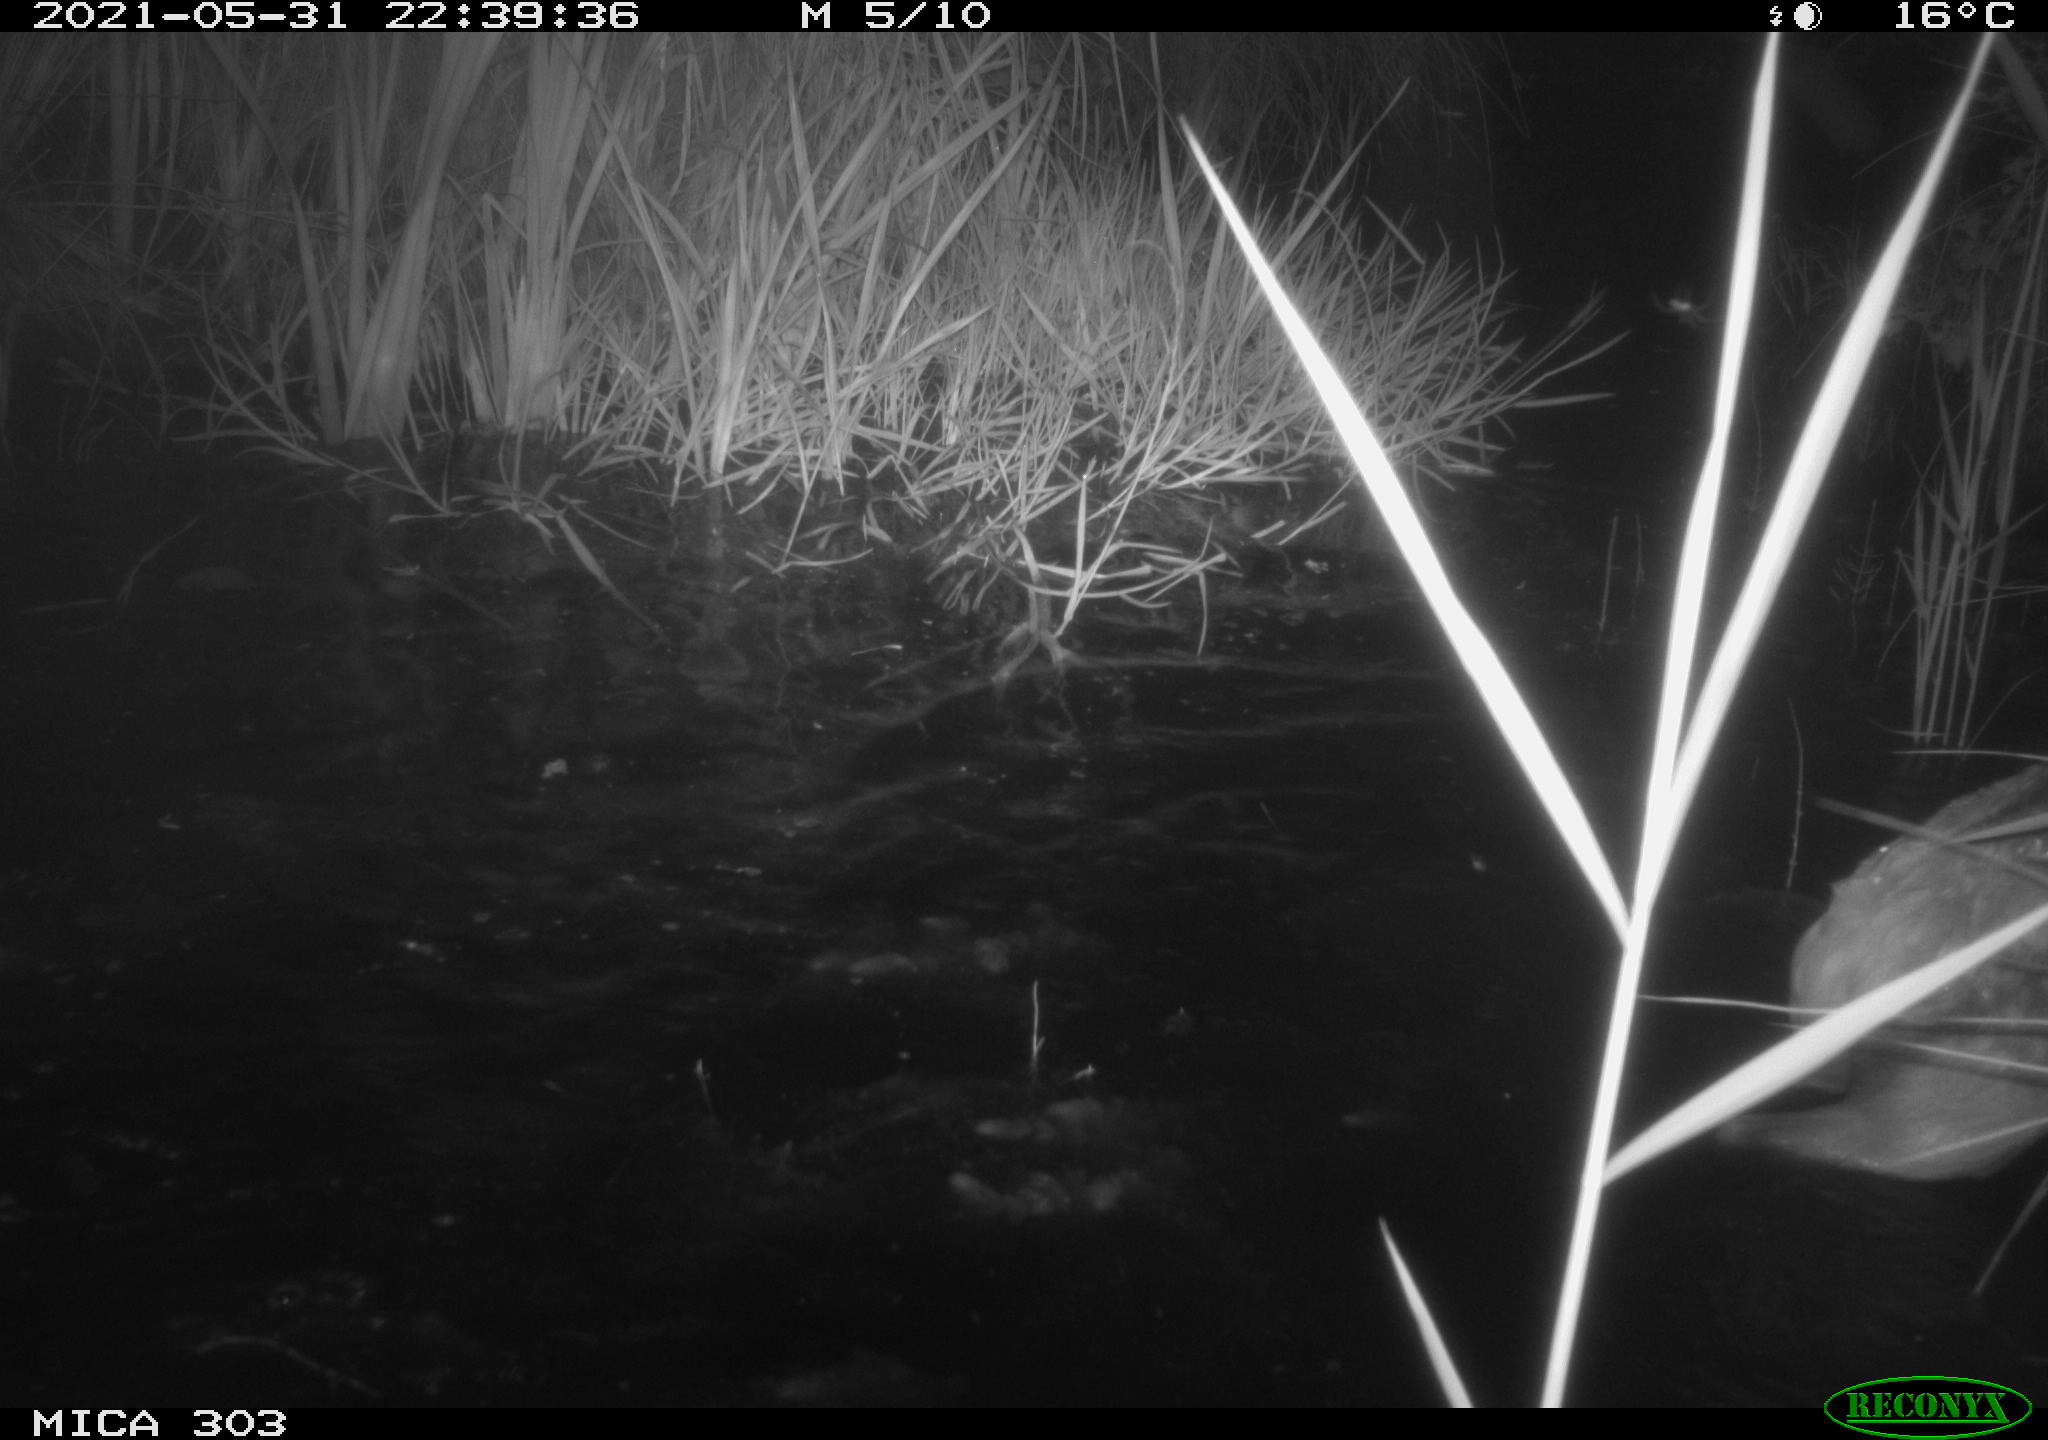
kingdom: Animalia
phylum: Chordata
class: Mammalia
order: Artiodactyla
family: Cervidae
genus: Cervus
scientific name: Cervus elaphus
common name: Red deer
